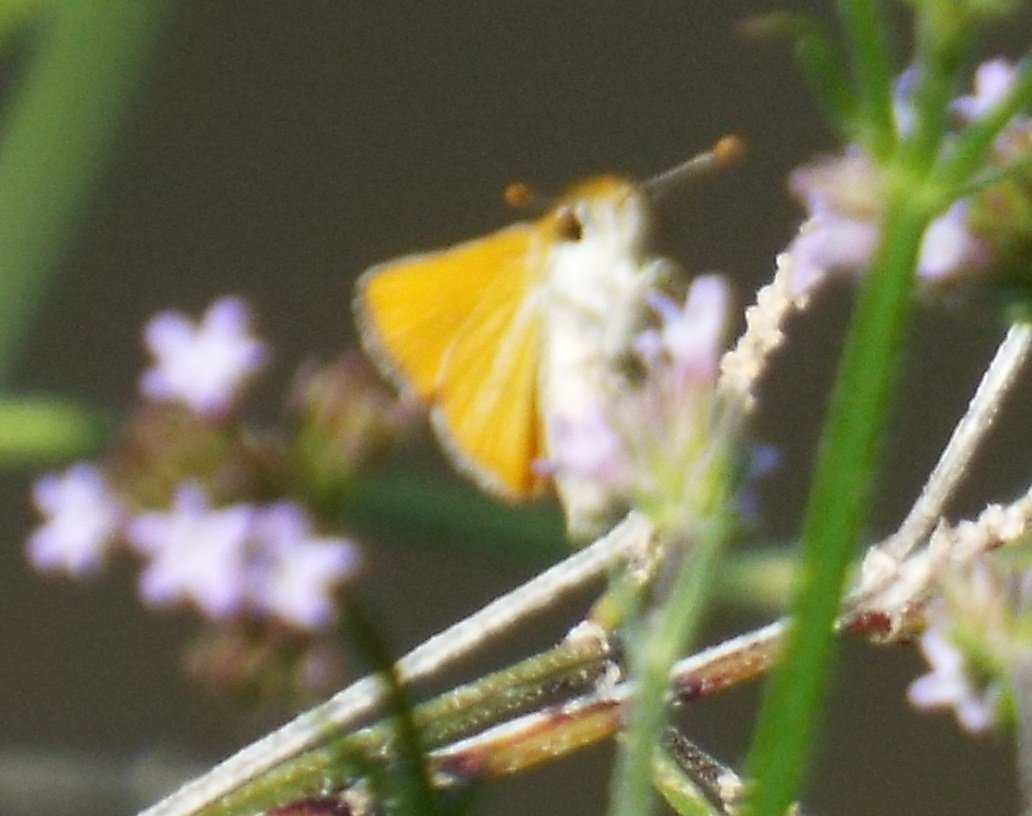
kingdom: Animalia
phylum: Arthropoda
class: Insecta
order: Lepidoptera
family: Hesperiidae
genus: Copaeodes
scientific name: Copaeodes minima
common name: Southern Skipperling
